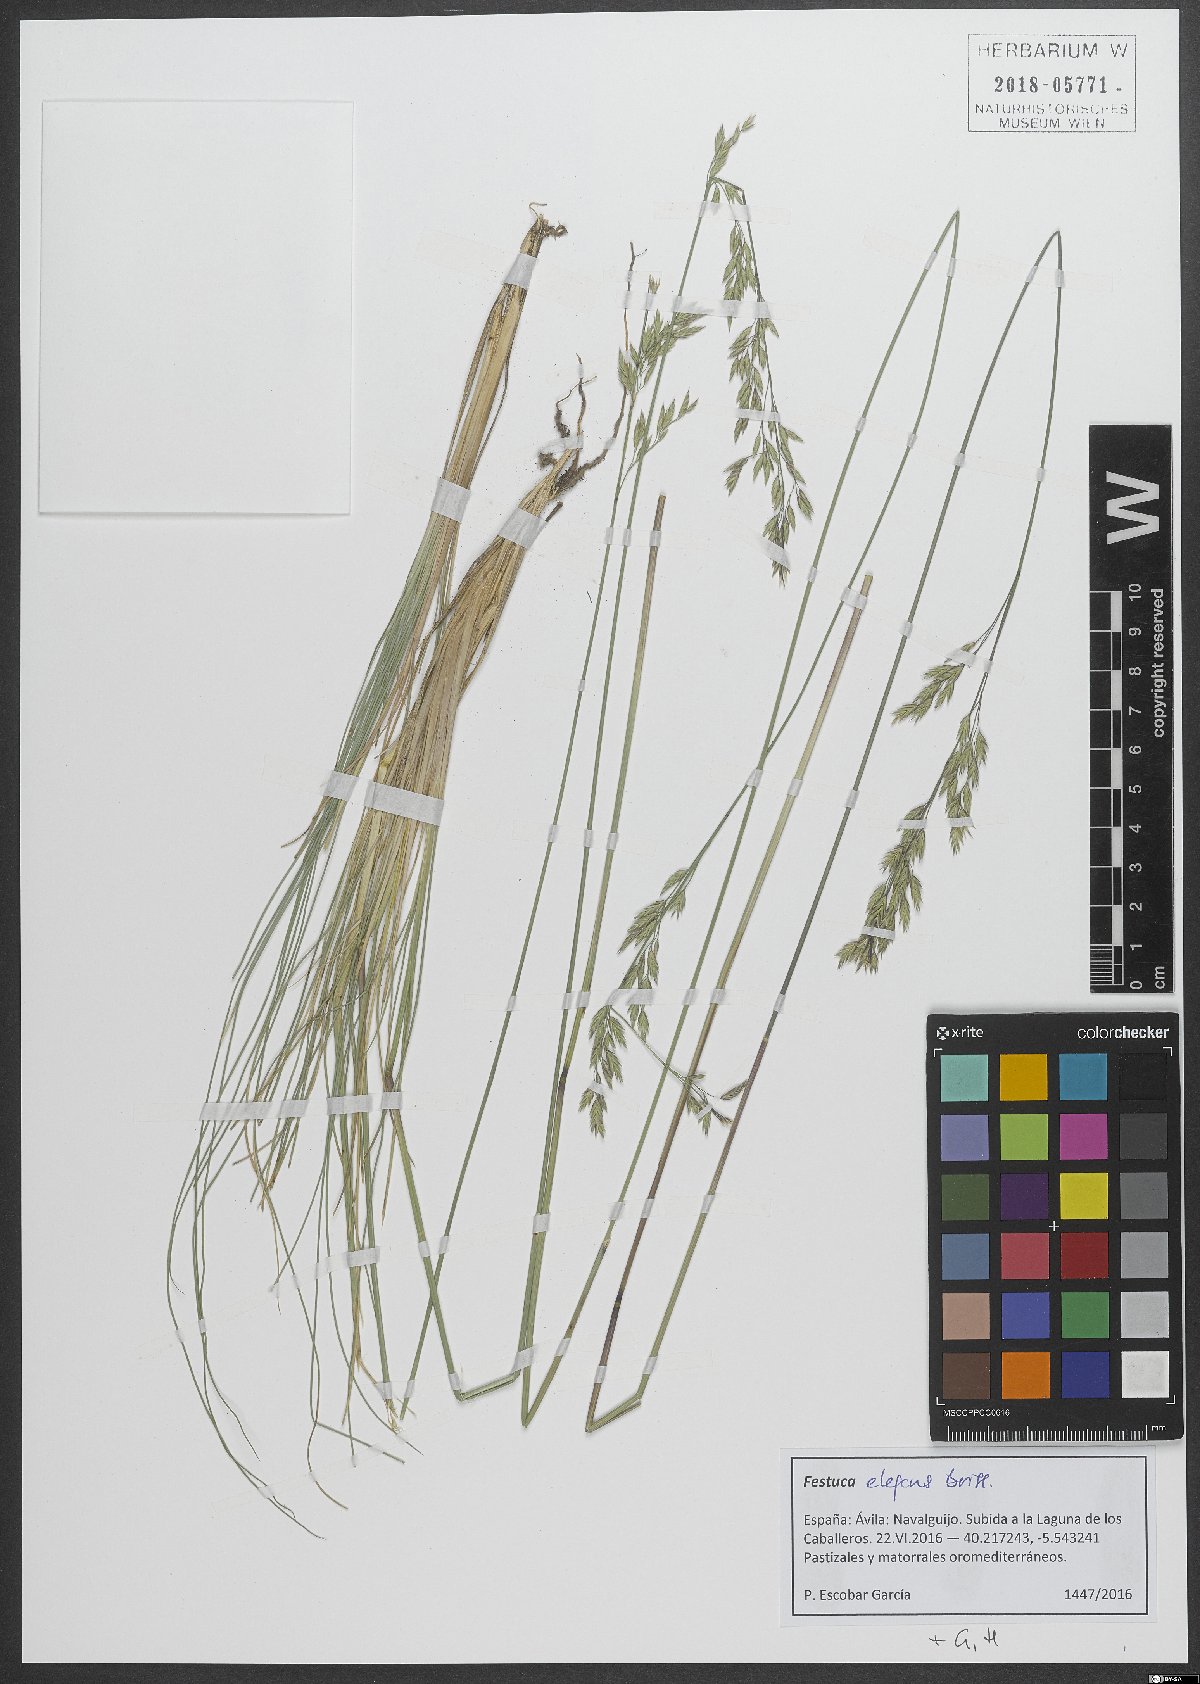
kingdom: Plantae
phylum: Tracheophyta
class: Liliopsida
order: Poales
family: Poaceae
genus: Festuca
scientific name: Festuca elegans
